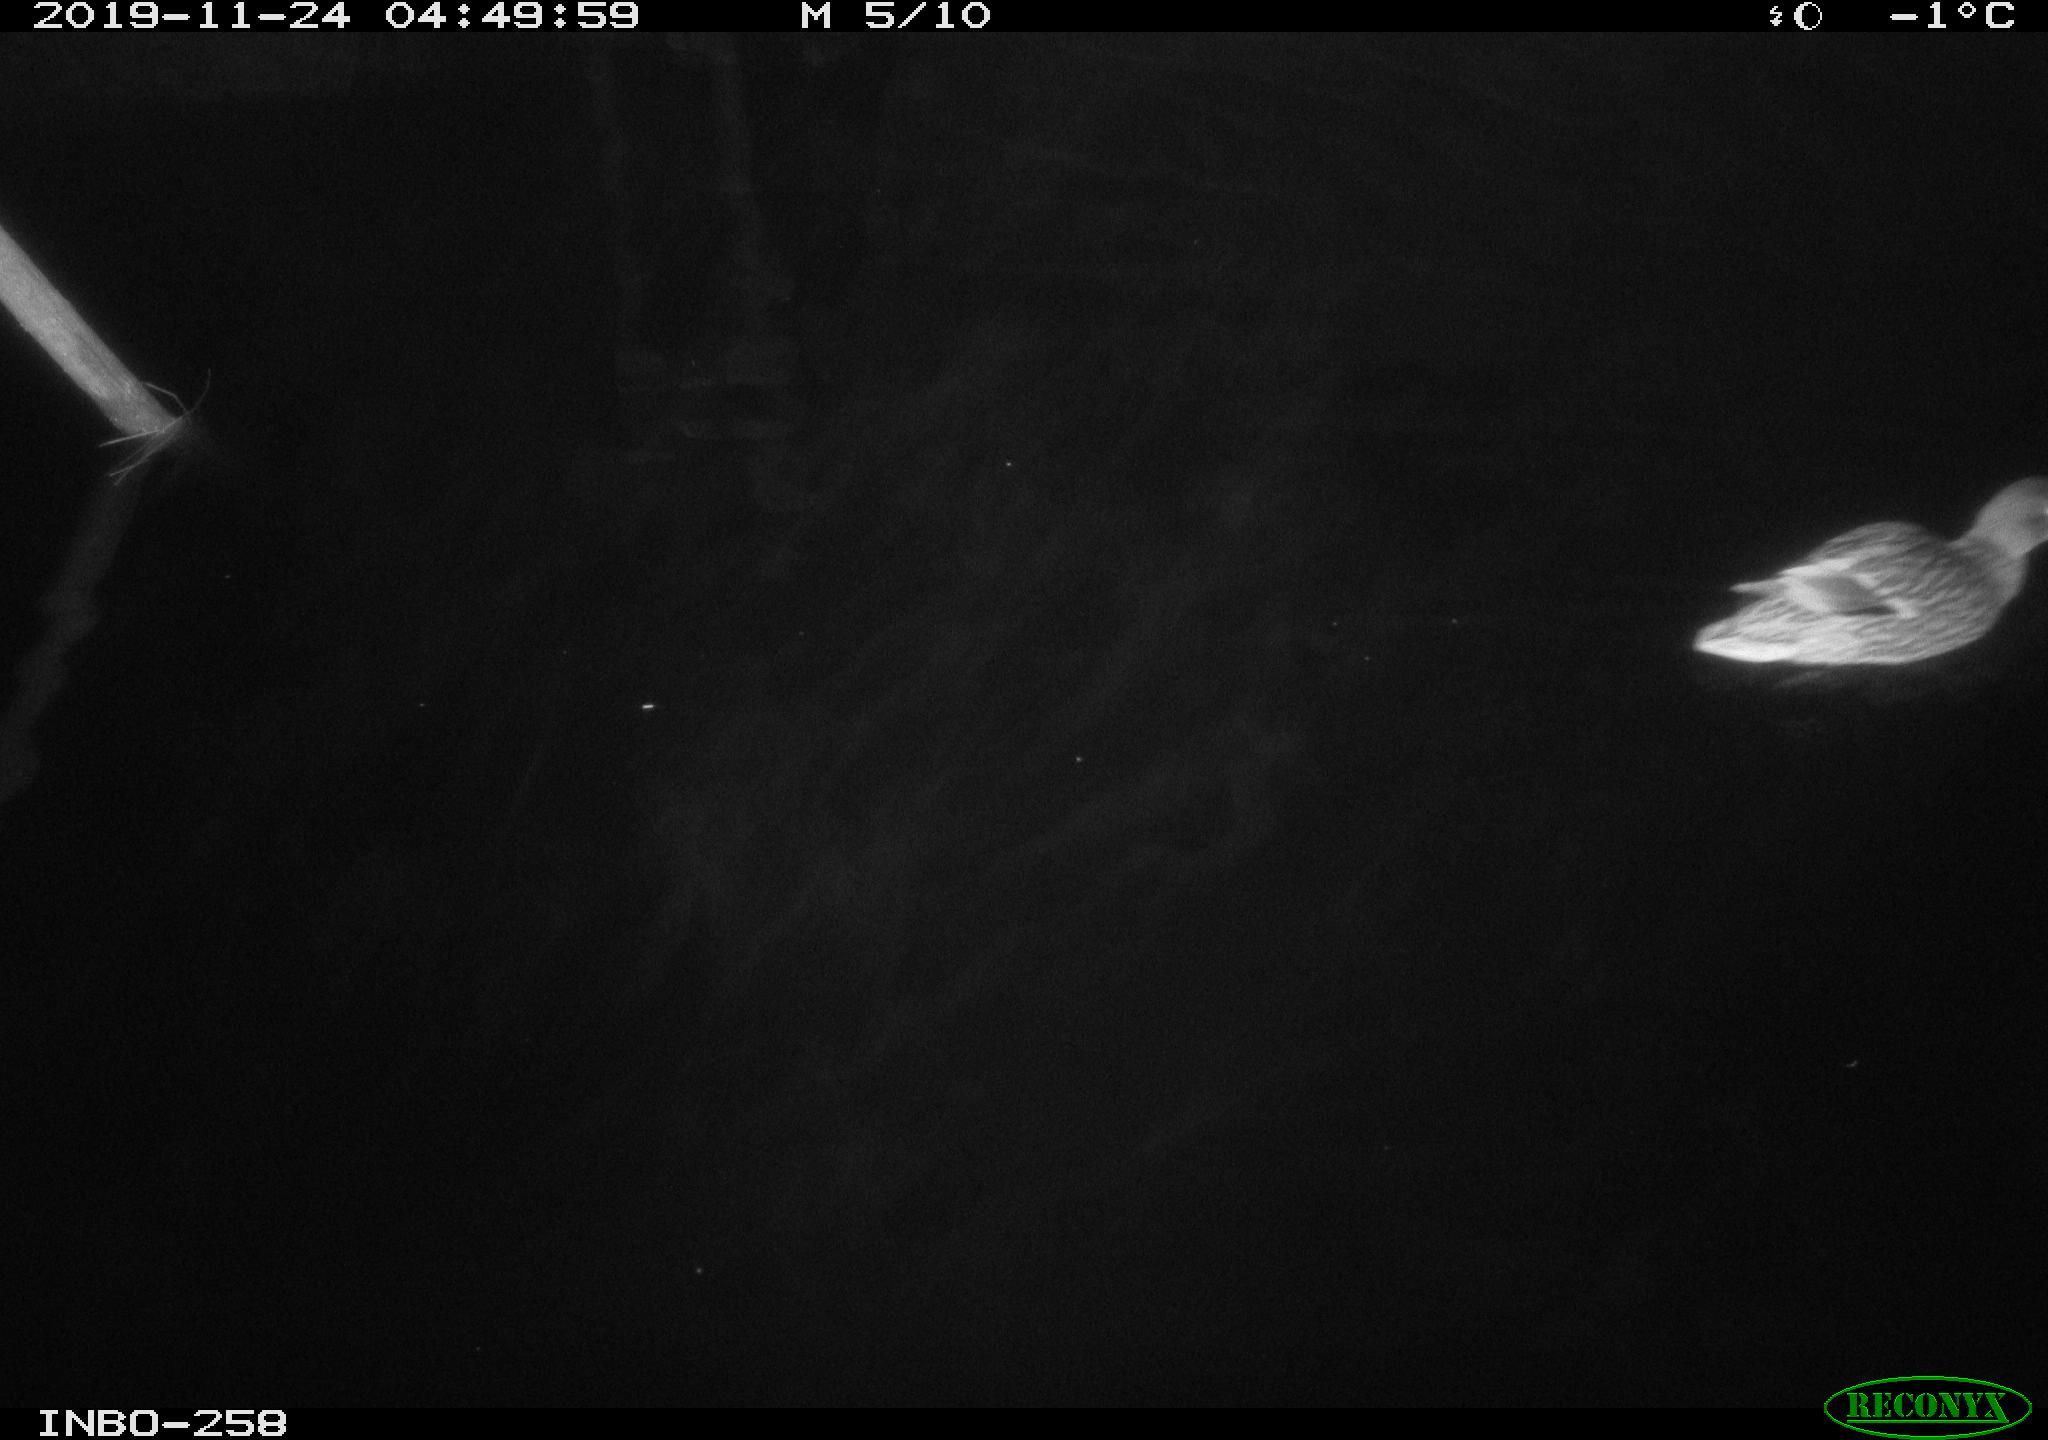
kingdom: Animalia
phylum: Chordata
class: Aves
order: Anseriformes
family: Anatidae
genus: Anas
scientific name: Anas platyrhynchos
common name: Mallard
